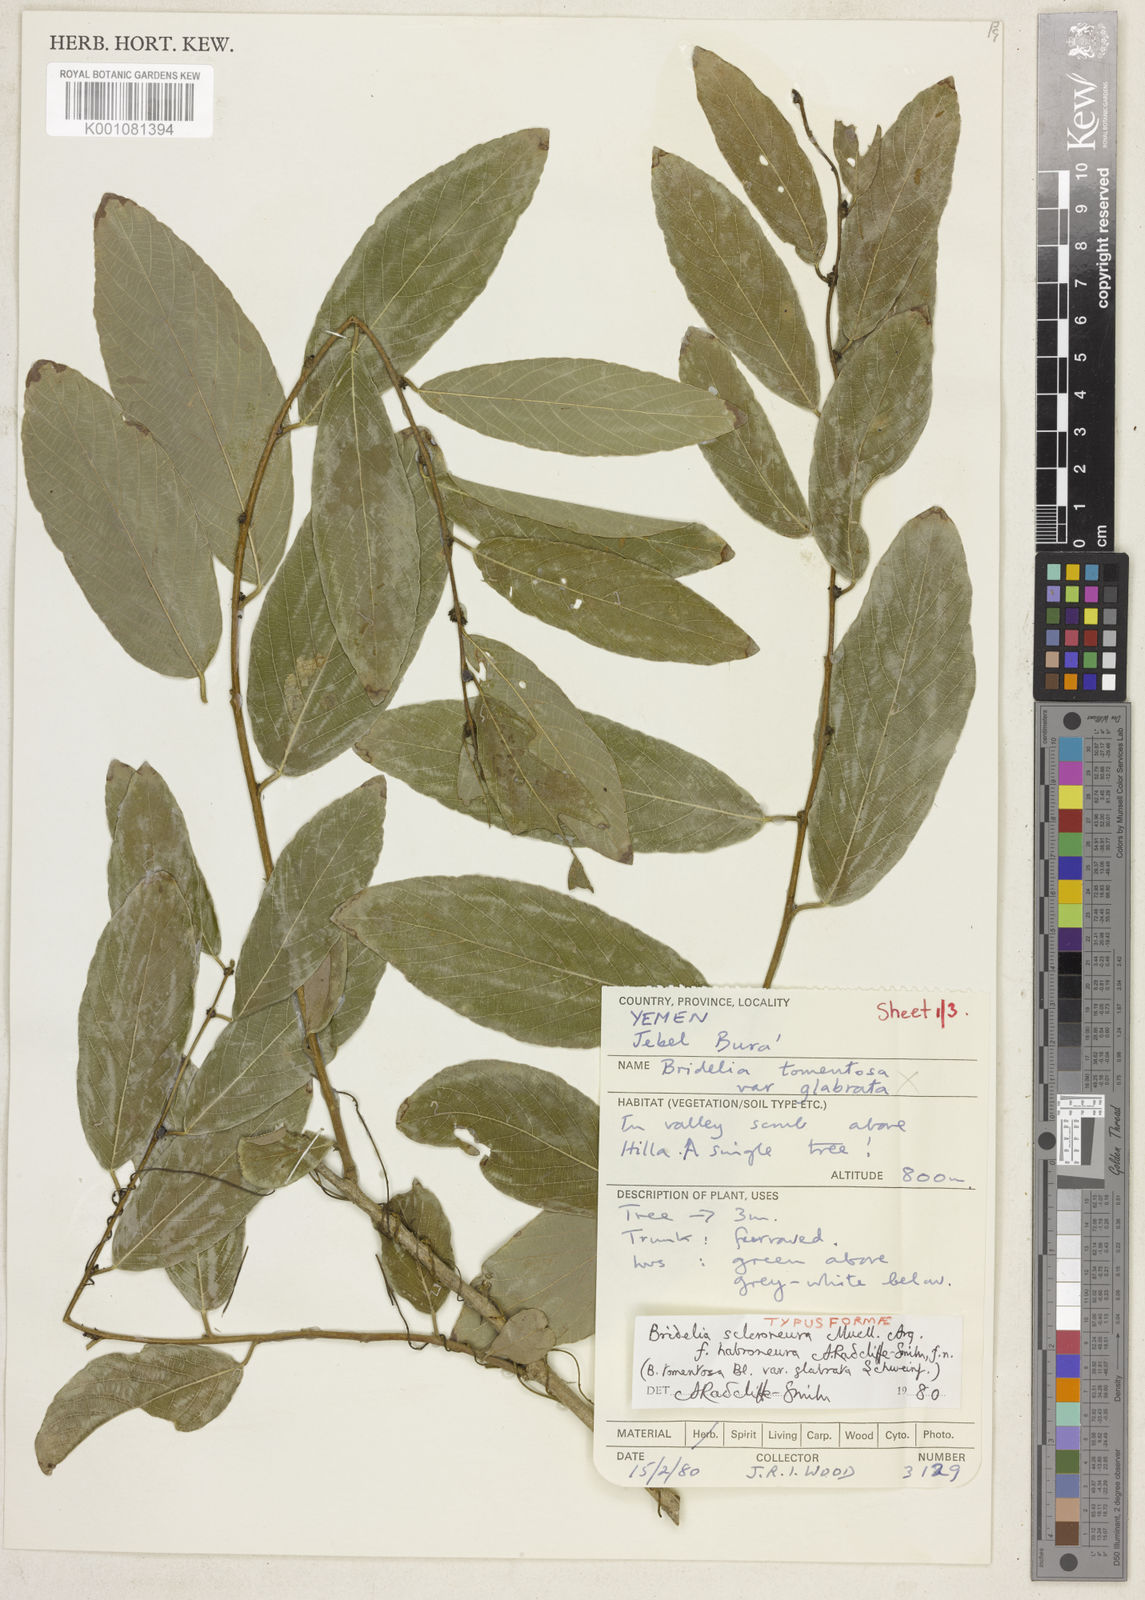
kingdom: Plantae
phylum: Tracheophyta
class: Magnoliopsida
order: Malpighiales
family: Phyllanthaceae
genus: Bridelia
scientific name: Bridelia
